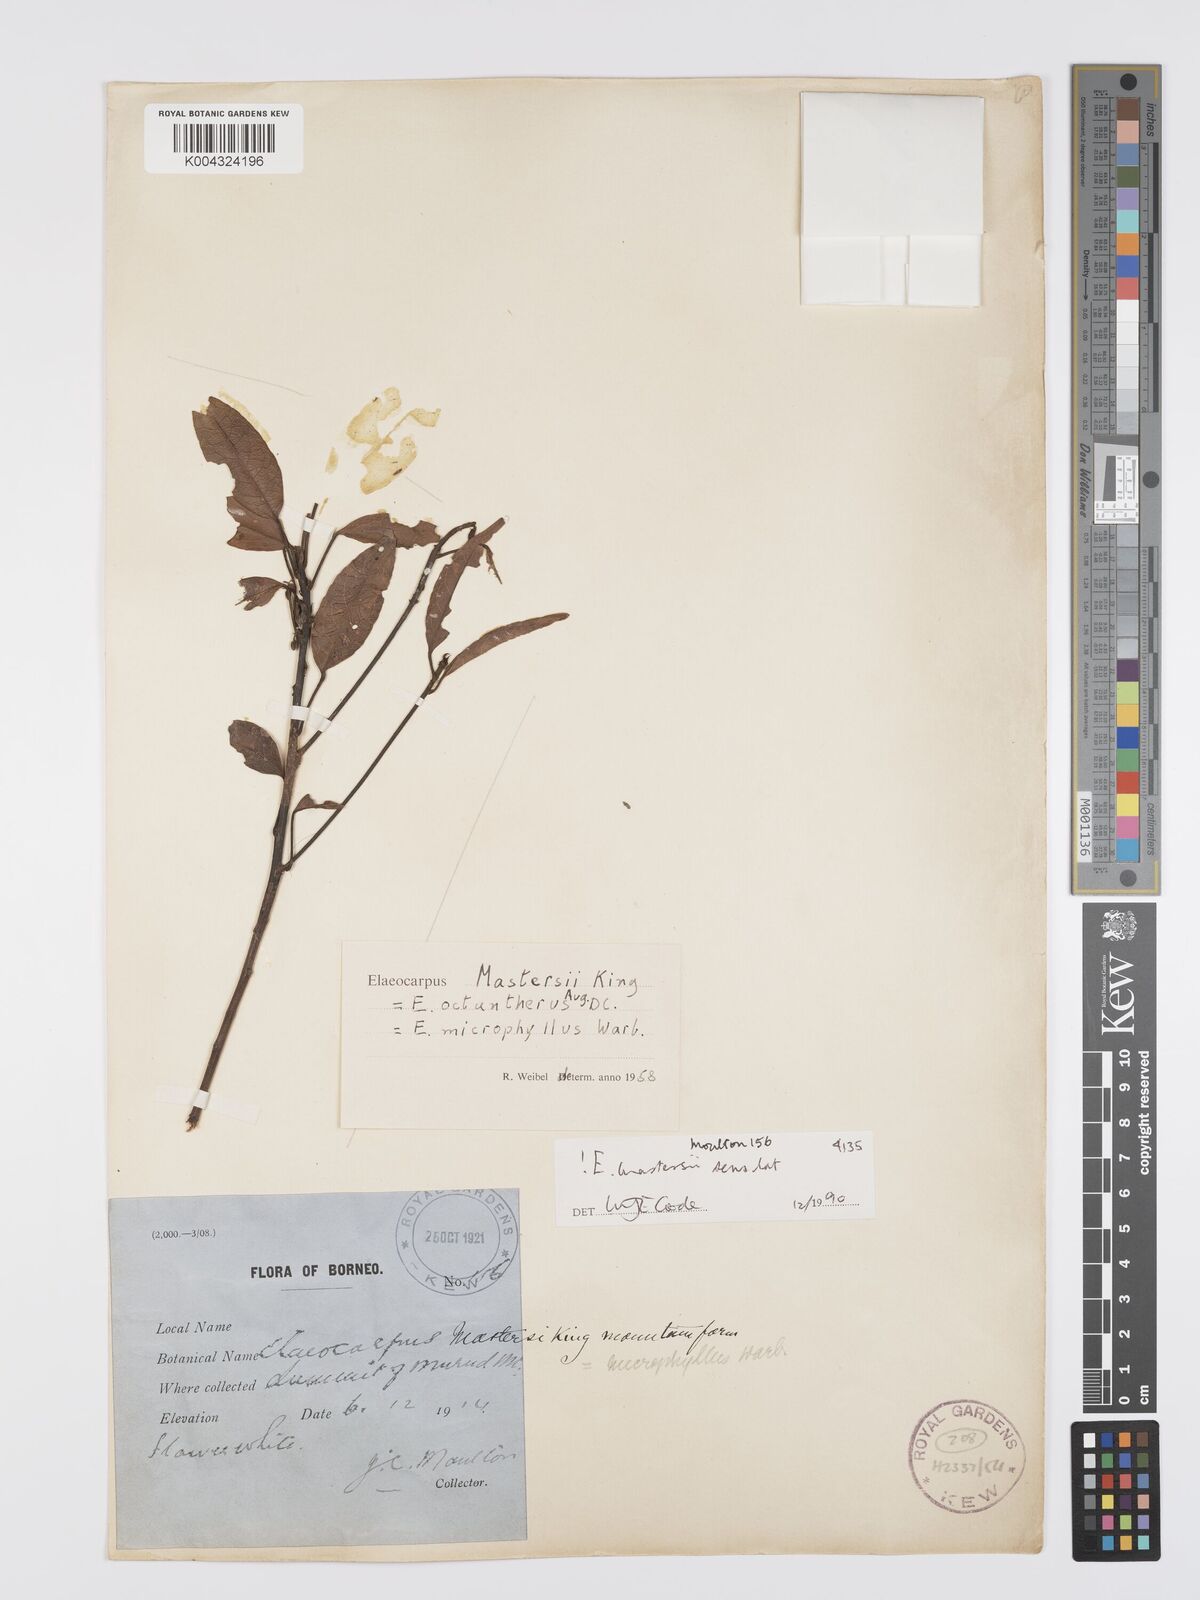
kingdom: Plantae
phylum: Tracheophyta
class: Magnoliopsida
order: Oxalidales
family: Elaeocarpaceae
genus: Elaeocarpus
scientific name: Elaeocarpus mastersii
